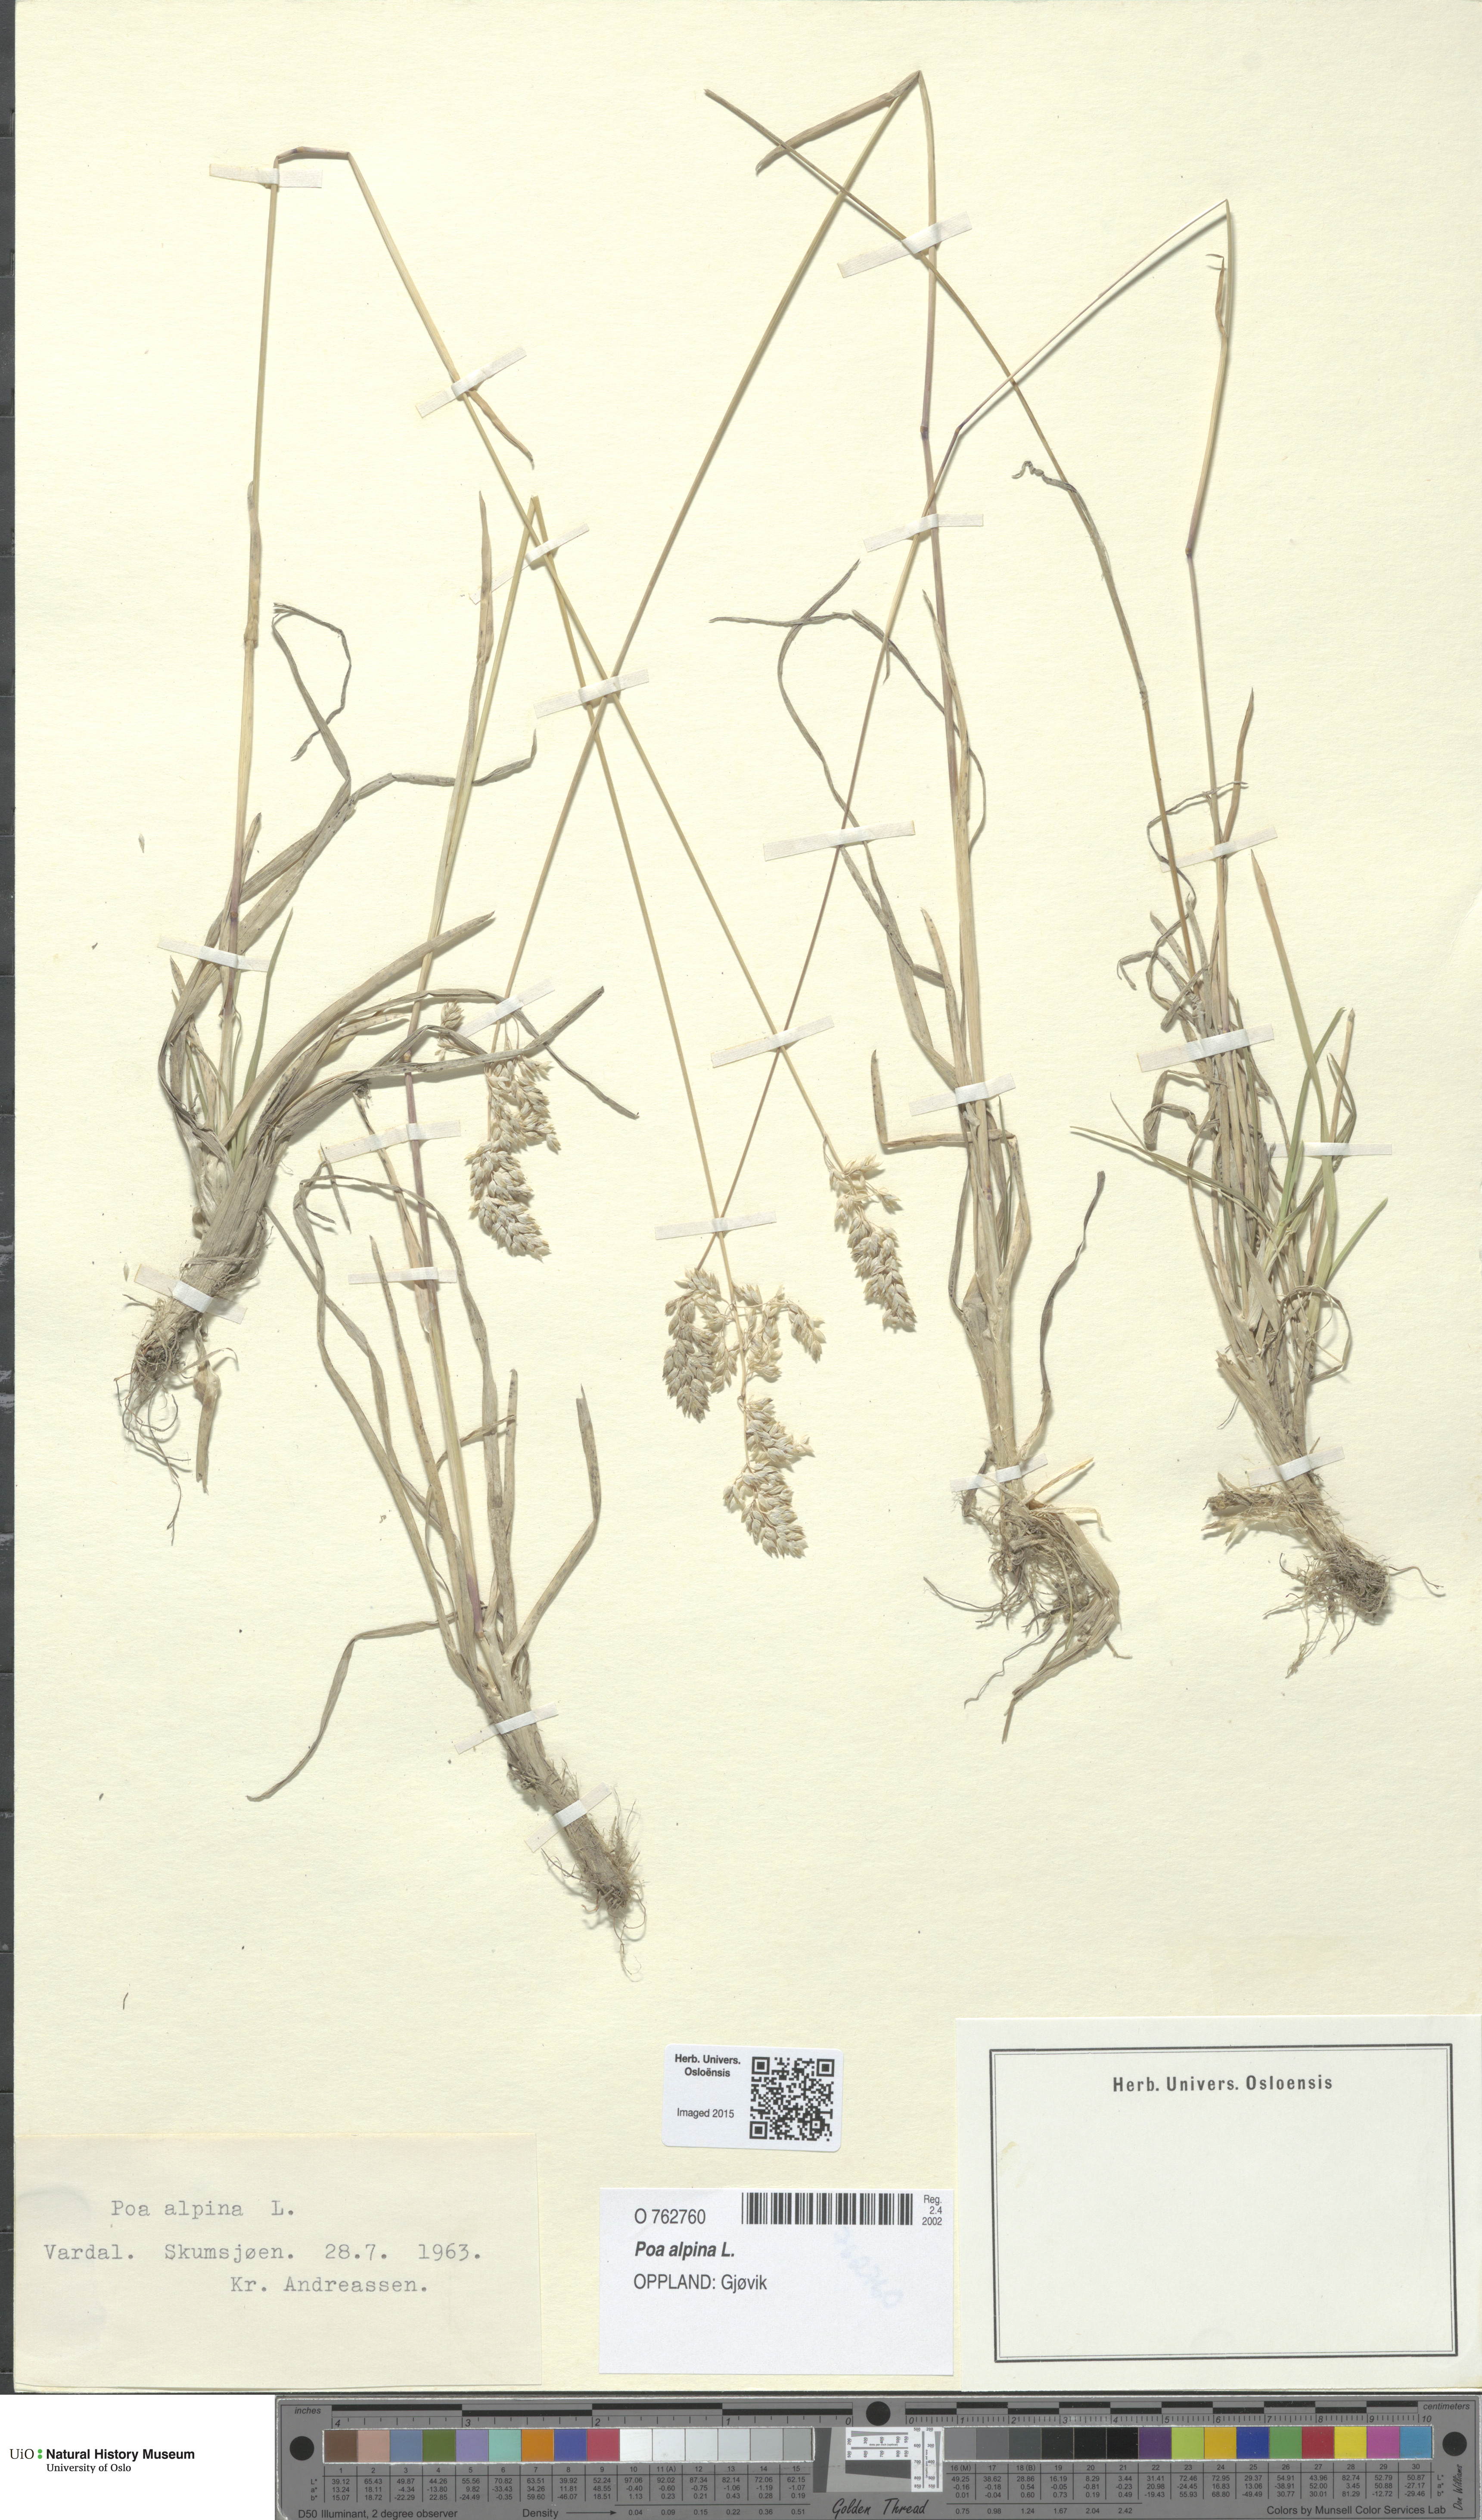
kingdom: Plantae
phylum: Tracheophyta
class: Liliopsida
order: Poales
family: Poaceae
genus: Poa
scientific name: Poa alpina
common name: Alpine bluegrass
